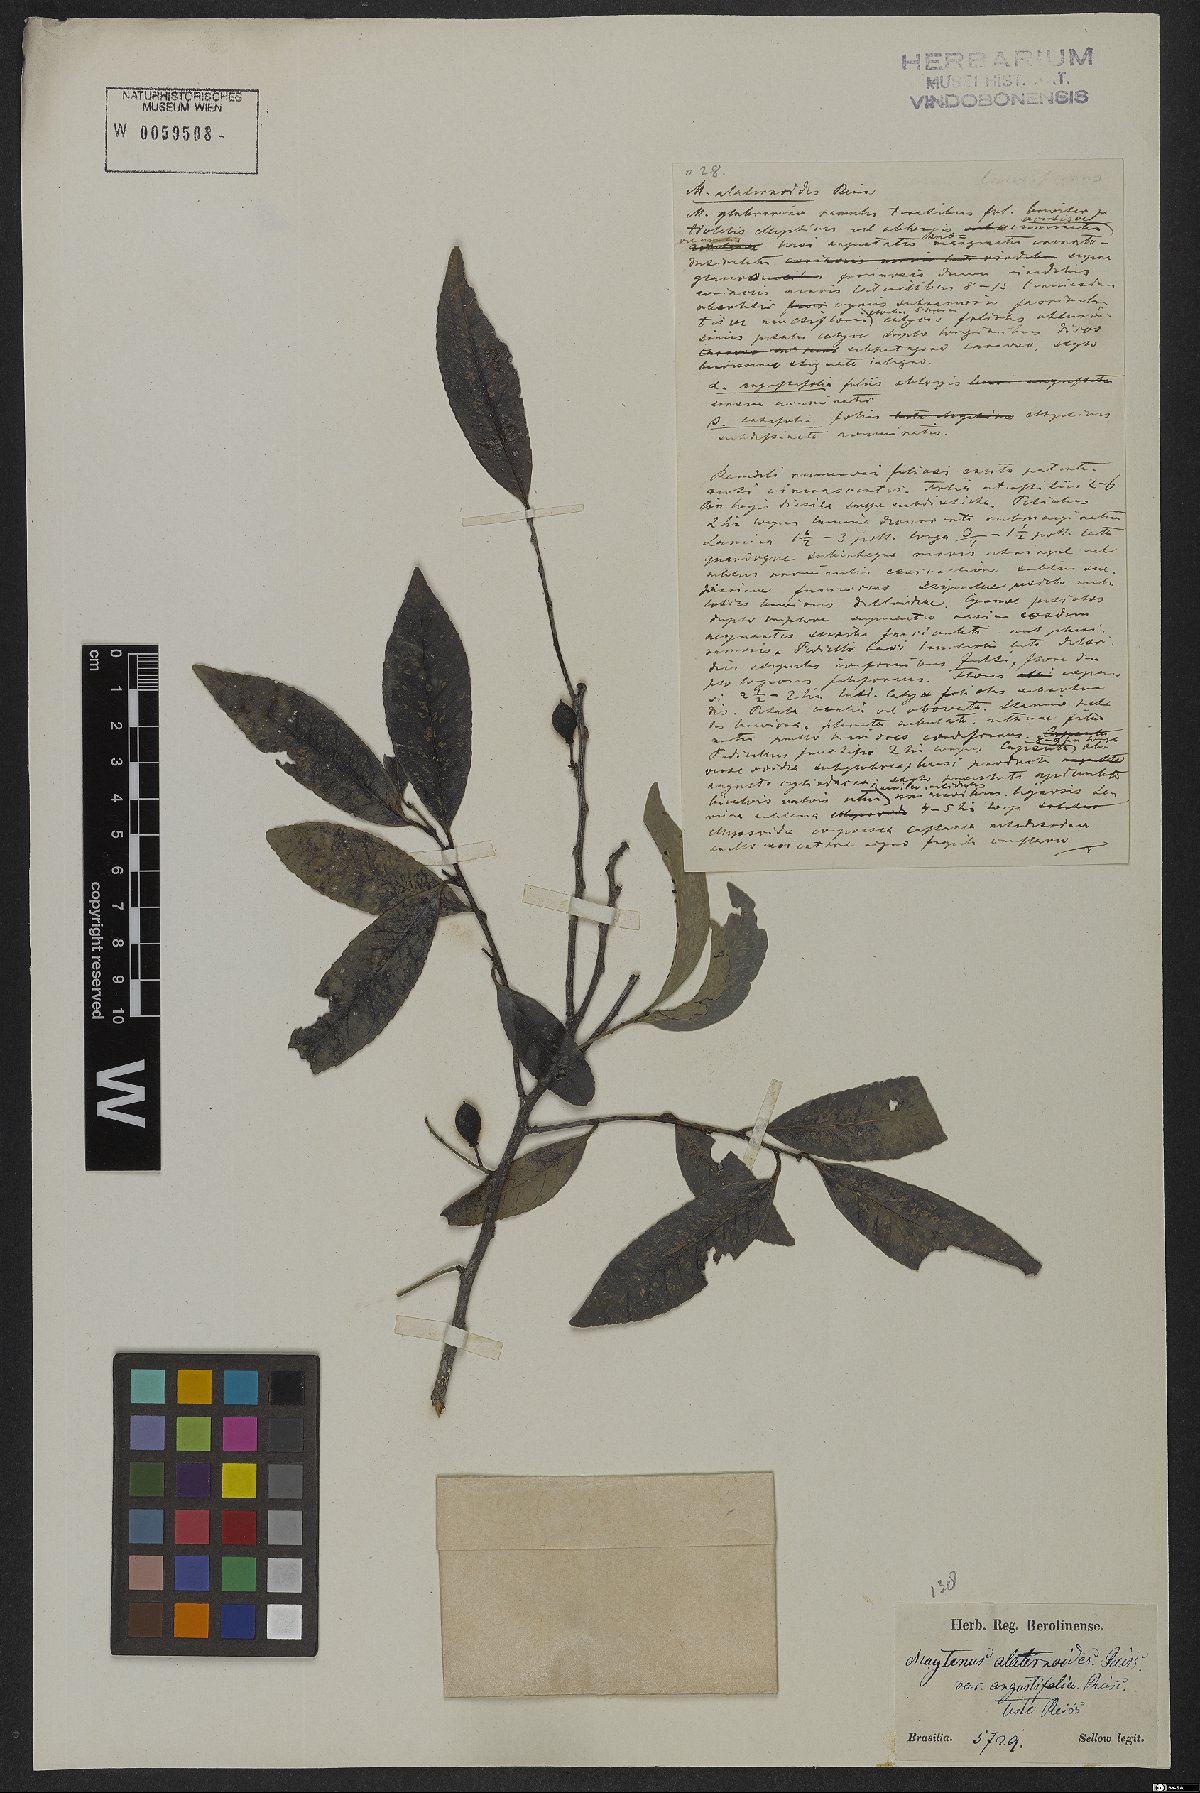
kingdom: Plantae
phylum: Tracheophyta
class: Magnoliopsida
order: Celastrales
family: Celastraceae
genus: Maytenus
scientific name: Maytenus alaternoides
